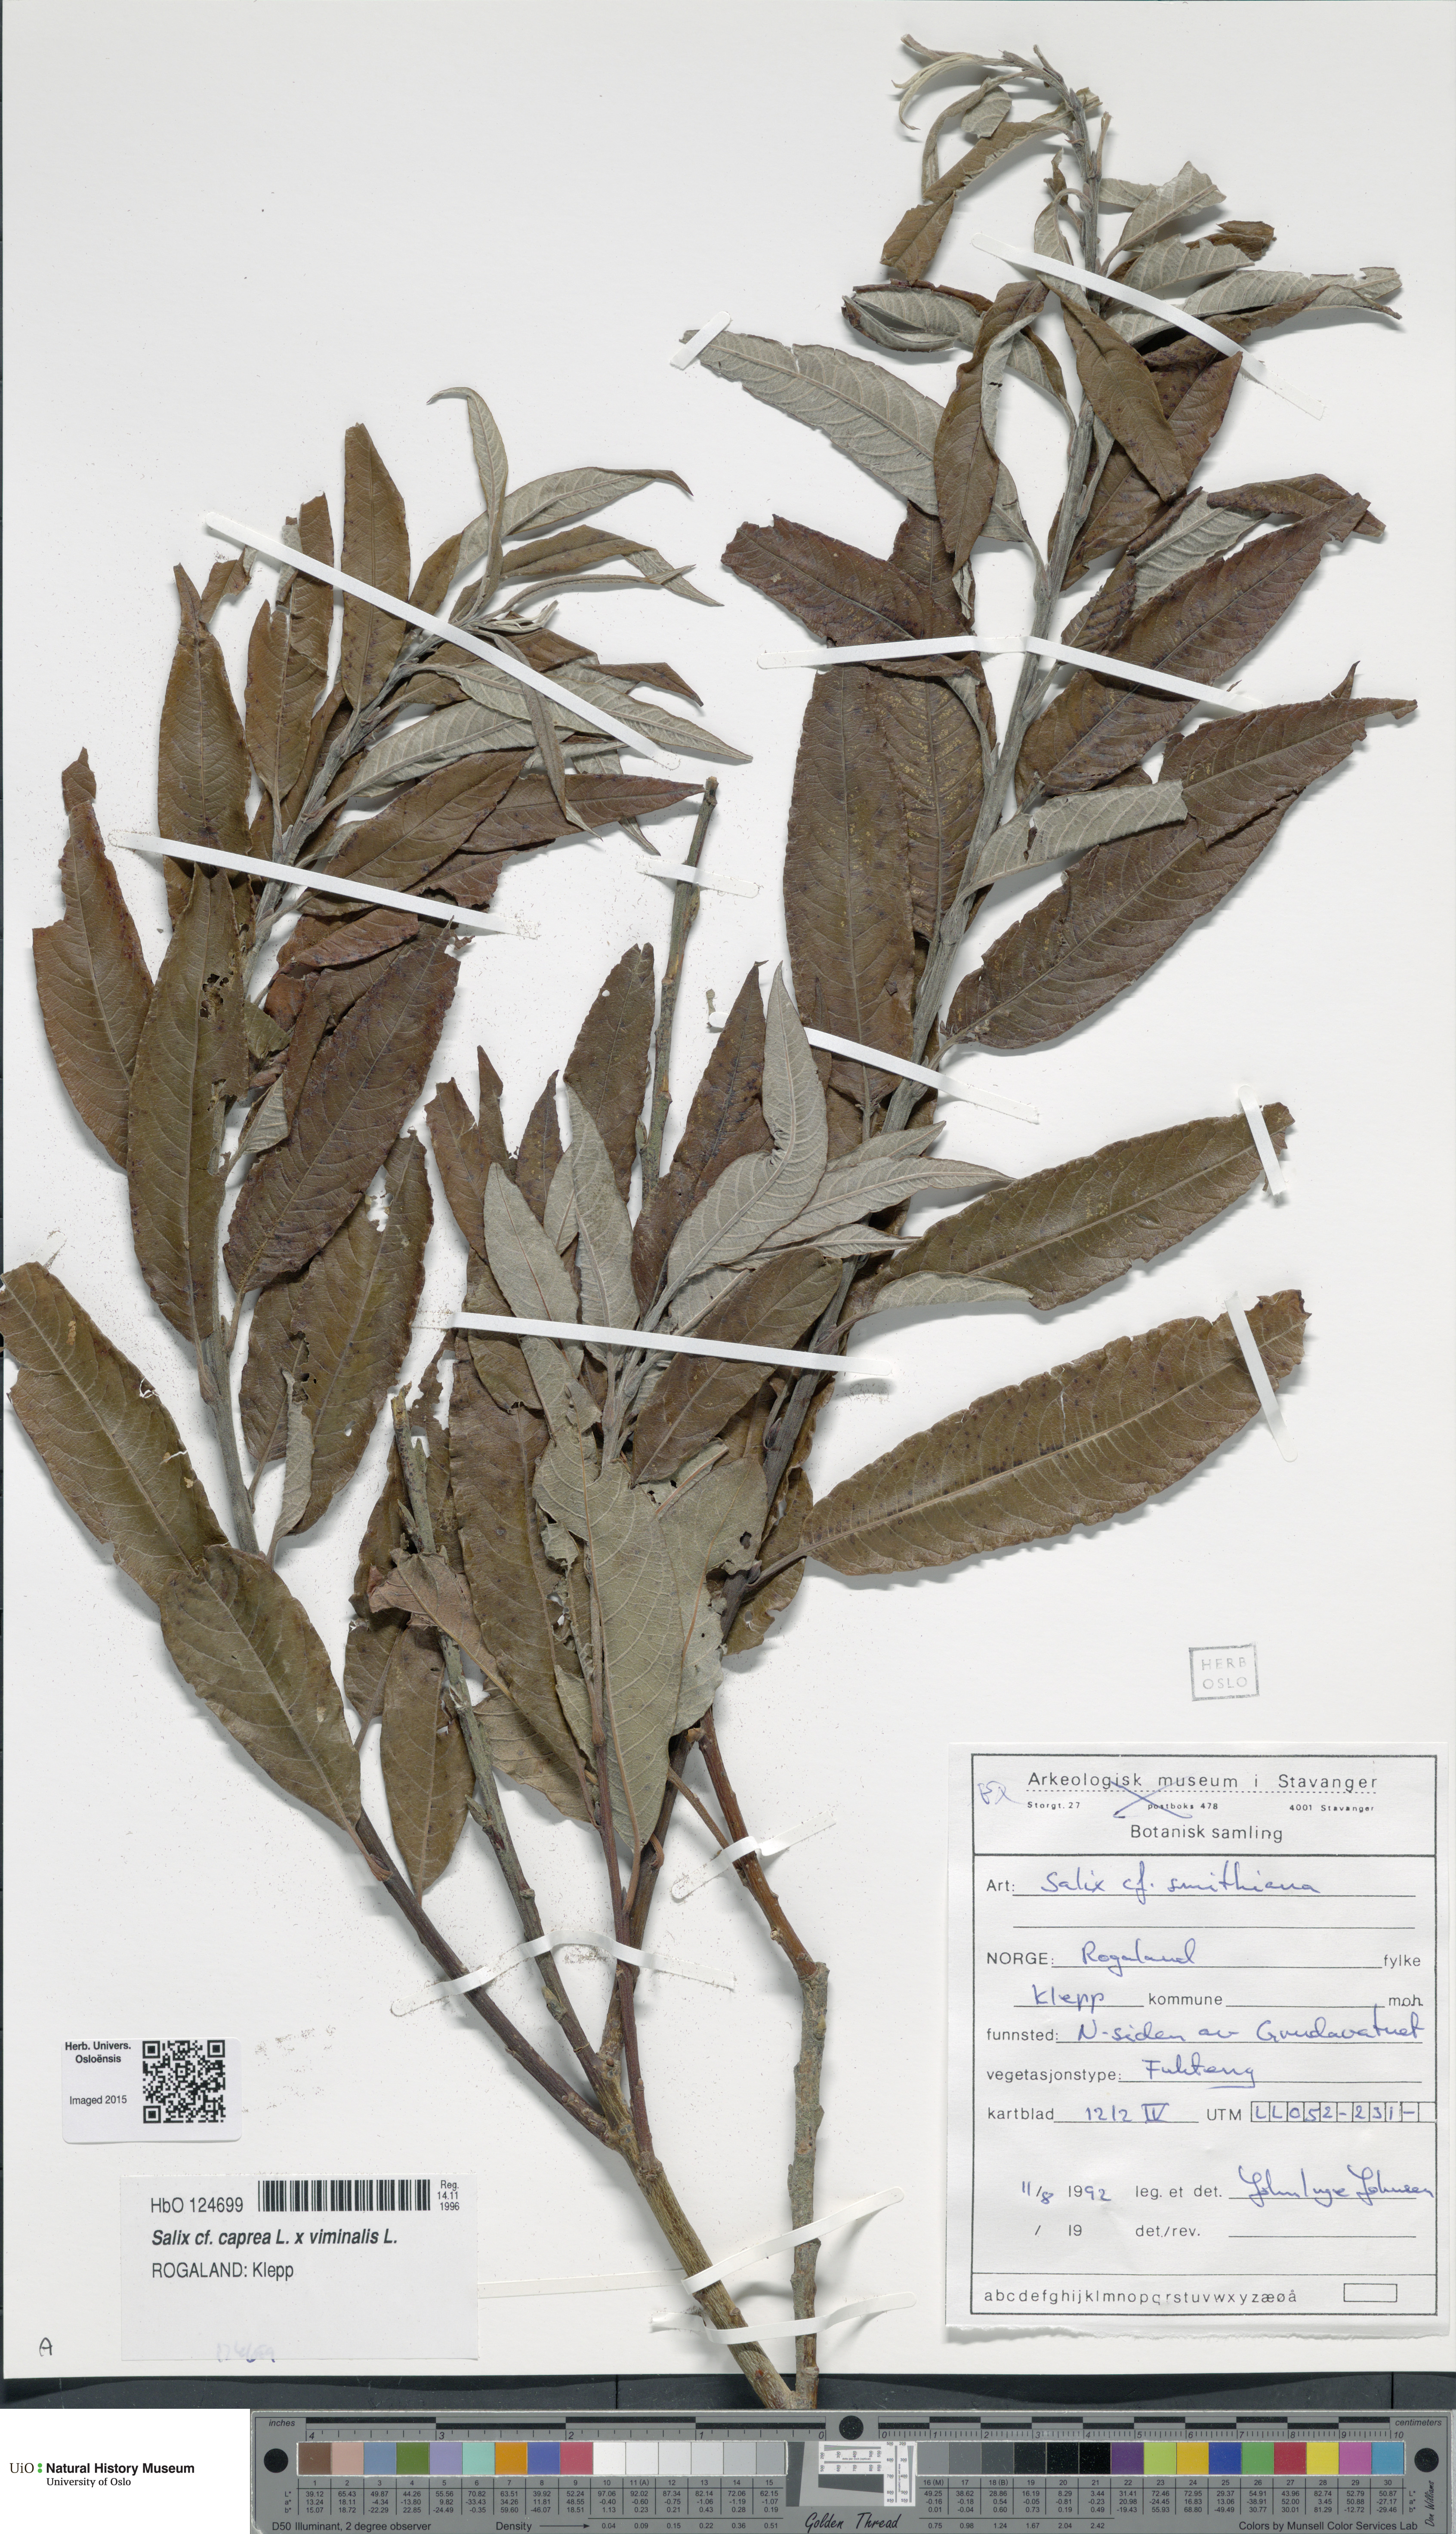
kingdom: Plantae
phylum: Tracheophyta
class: Magnoliopsida
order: Malpighiales
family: Salicaceae
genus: Salix
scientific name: Salix
